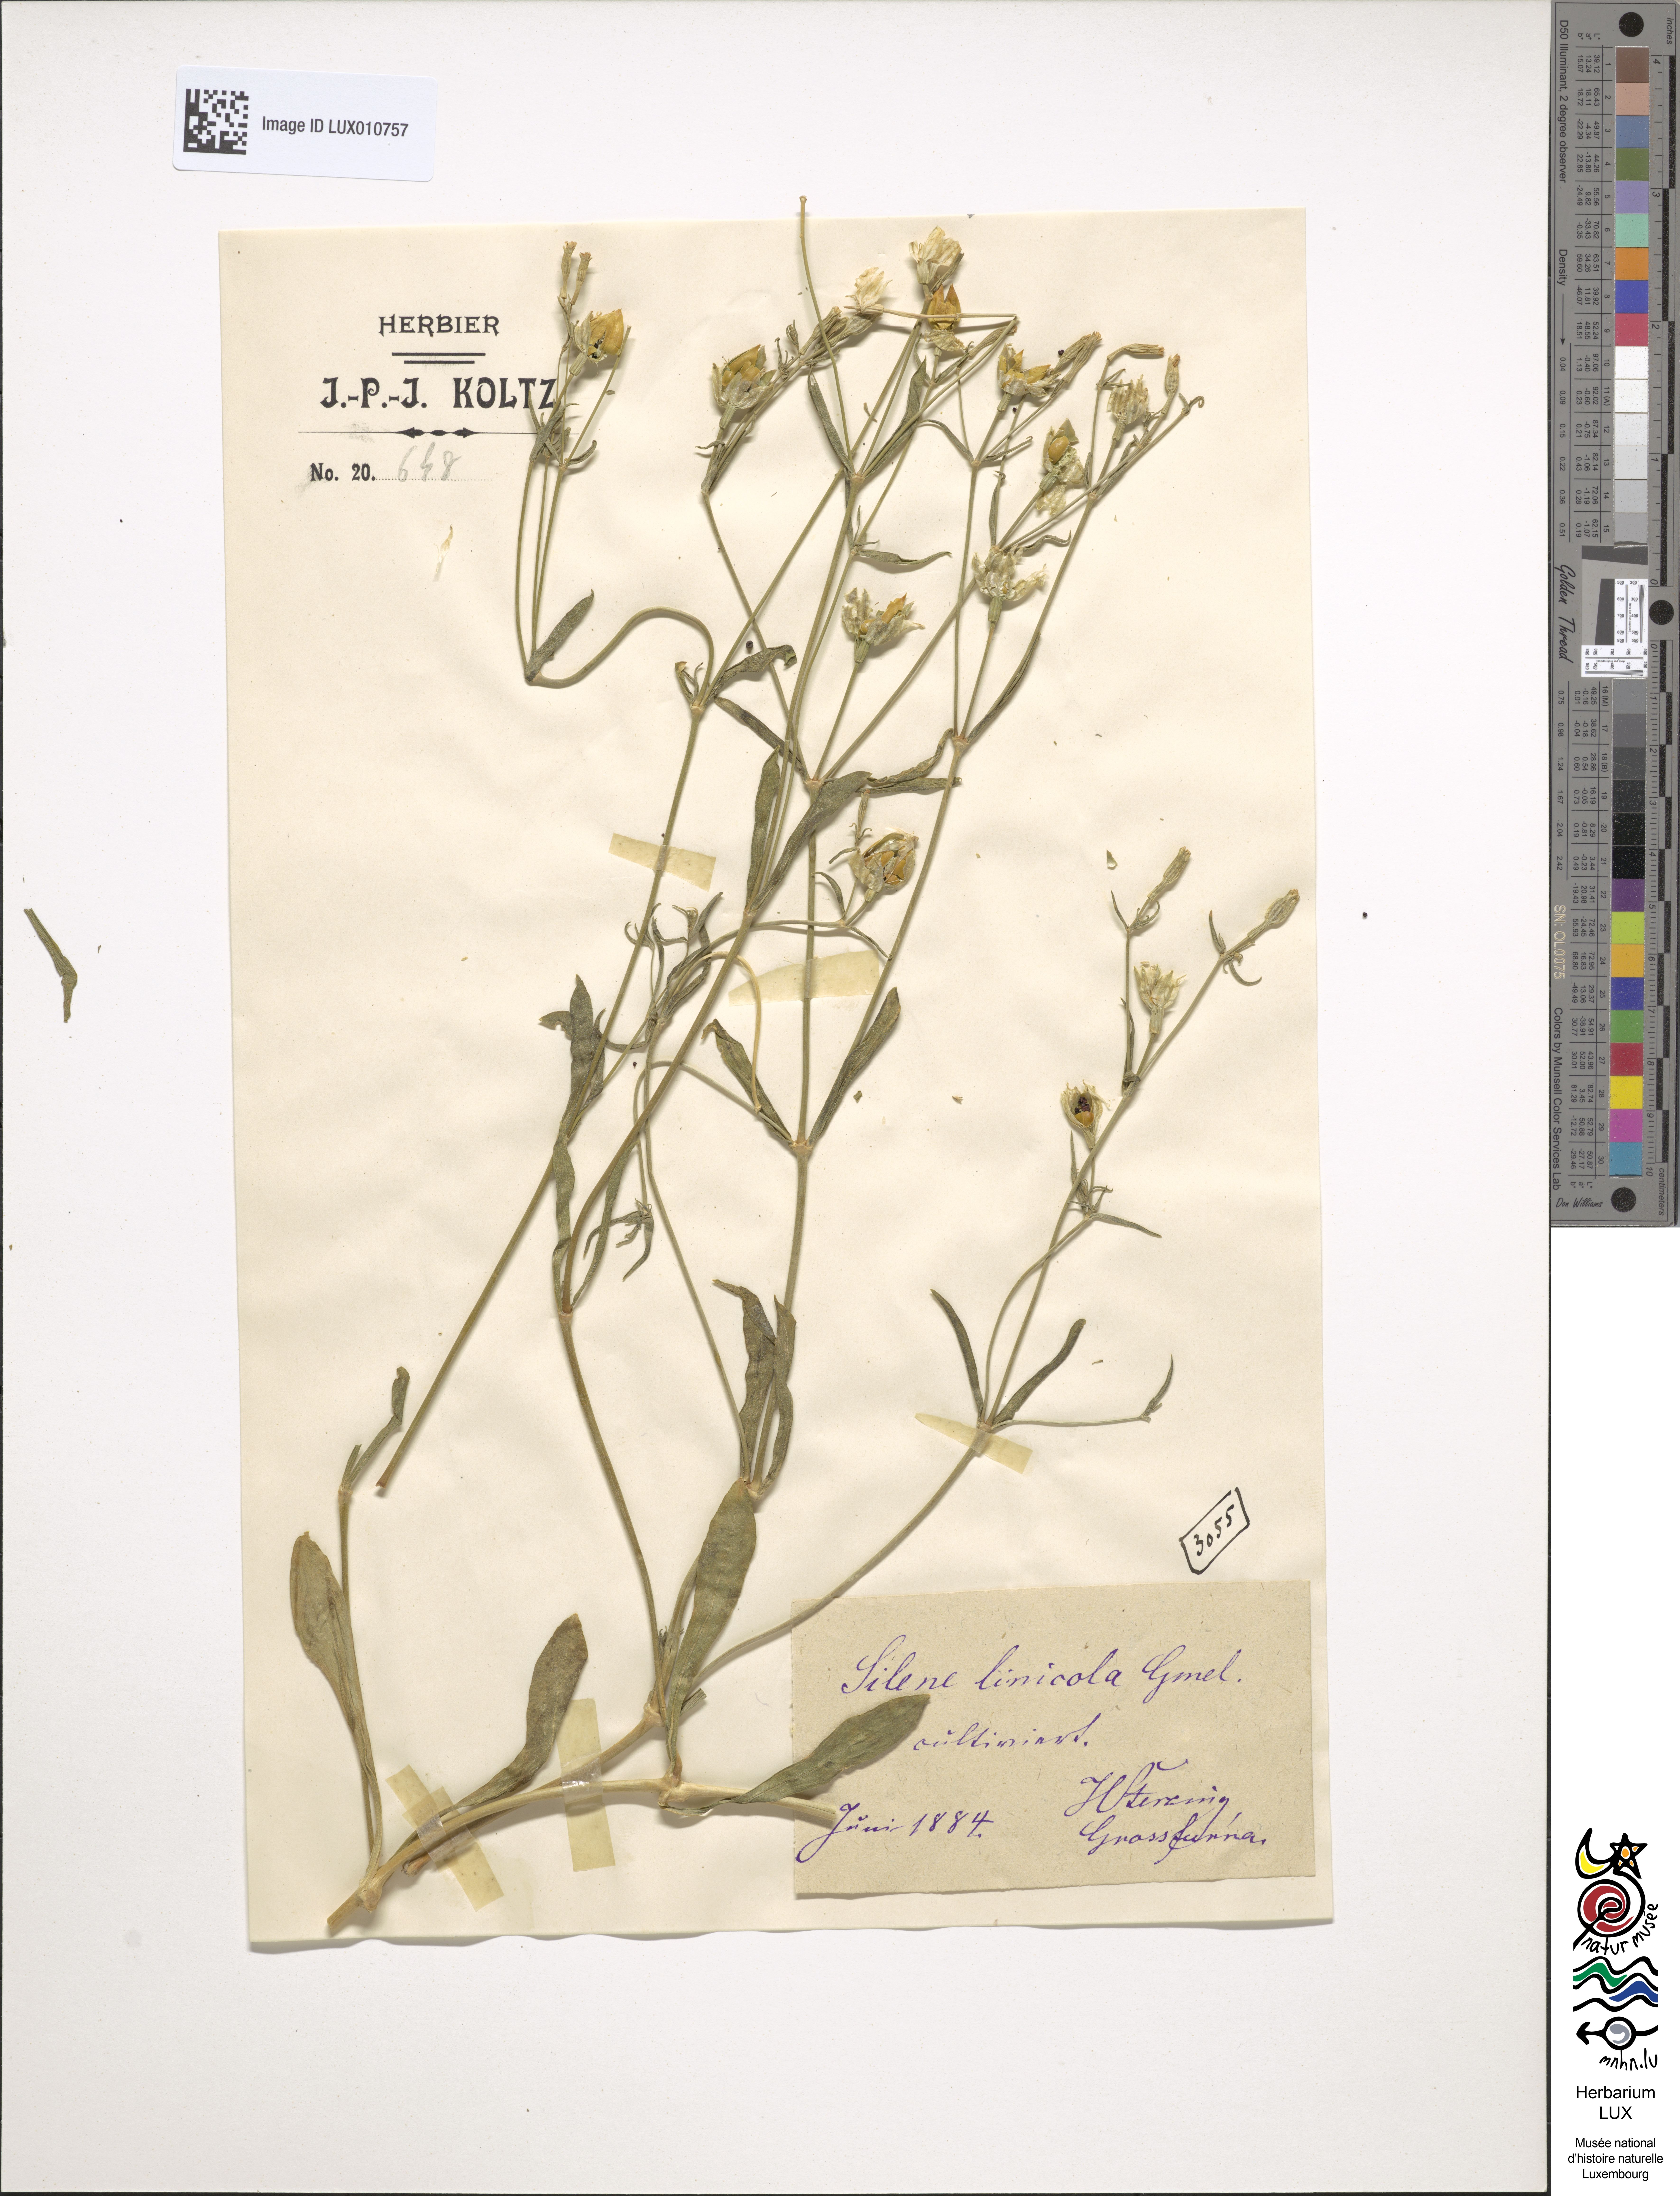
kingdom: Plantae
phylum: Tracheophyta
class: Magnoliopsida
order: Caryophyllales
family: Caryophyllaceae
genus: Silene
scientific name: Silene linicola
